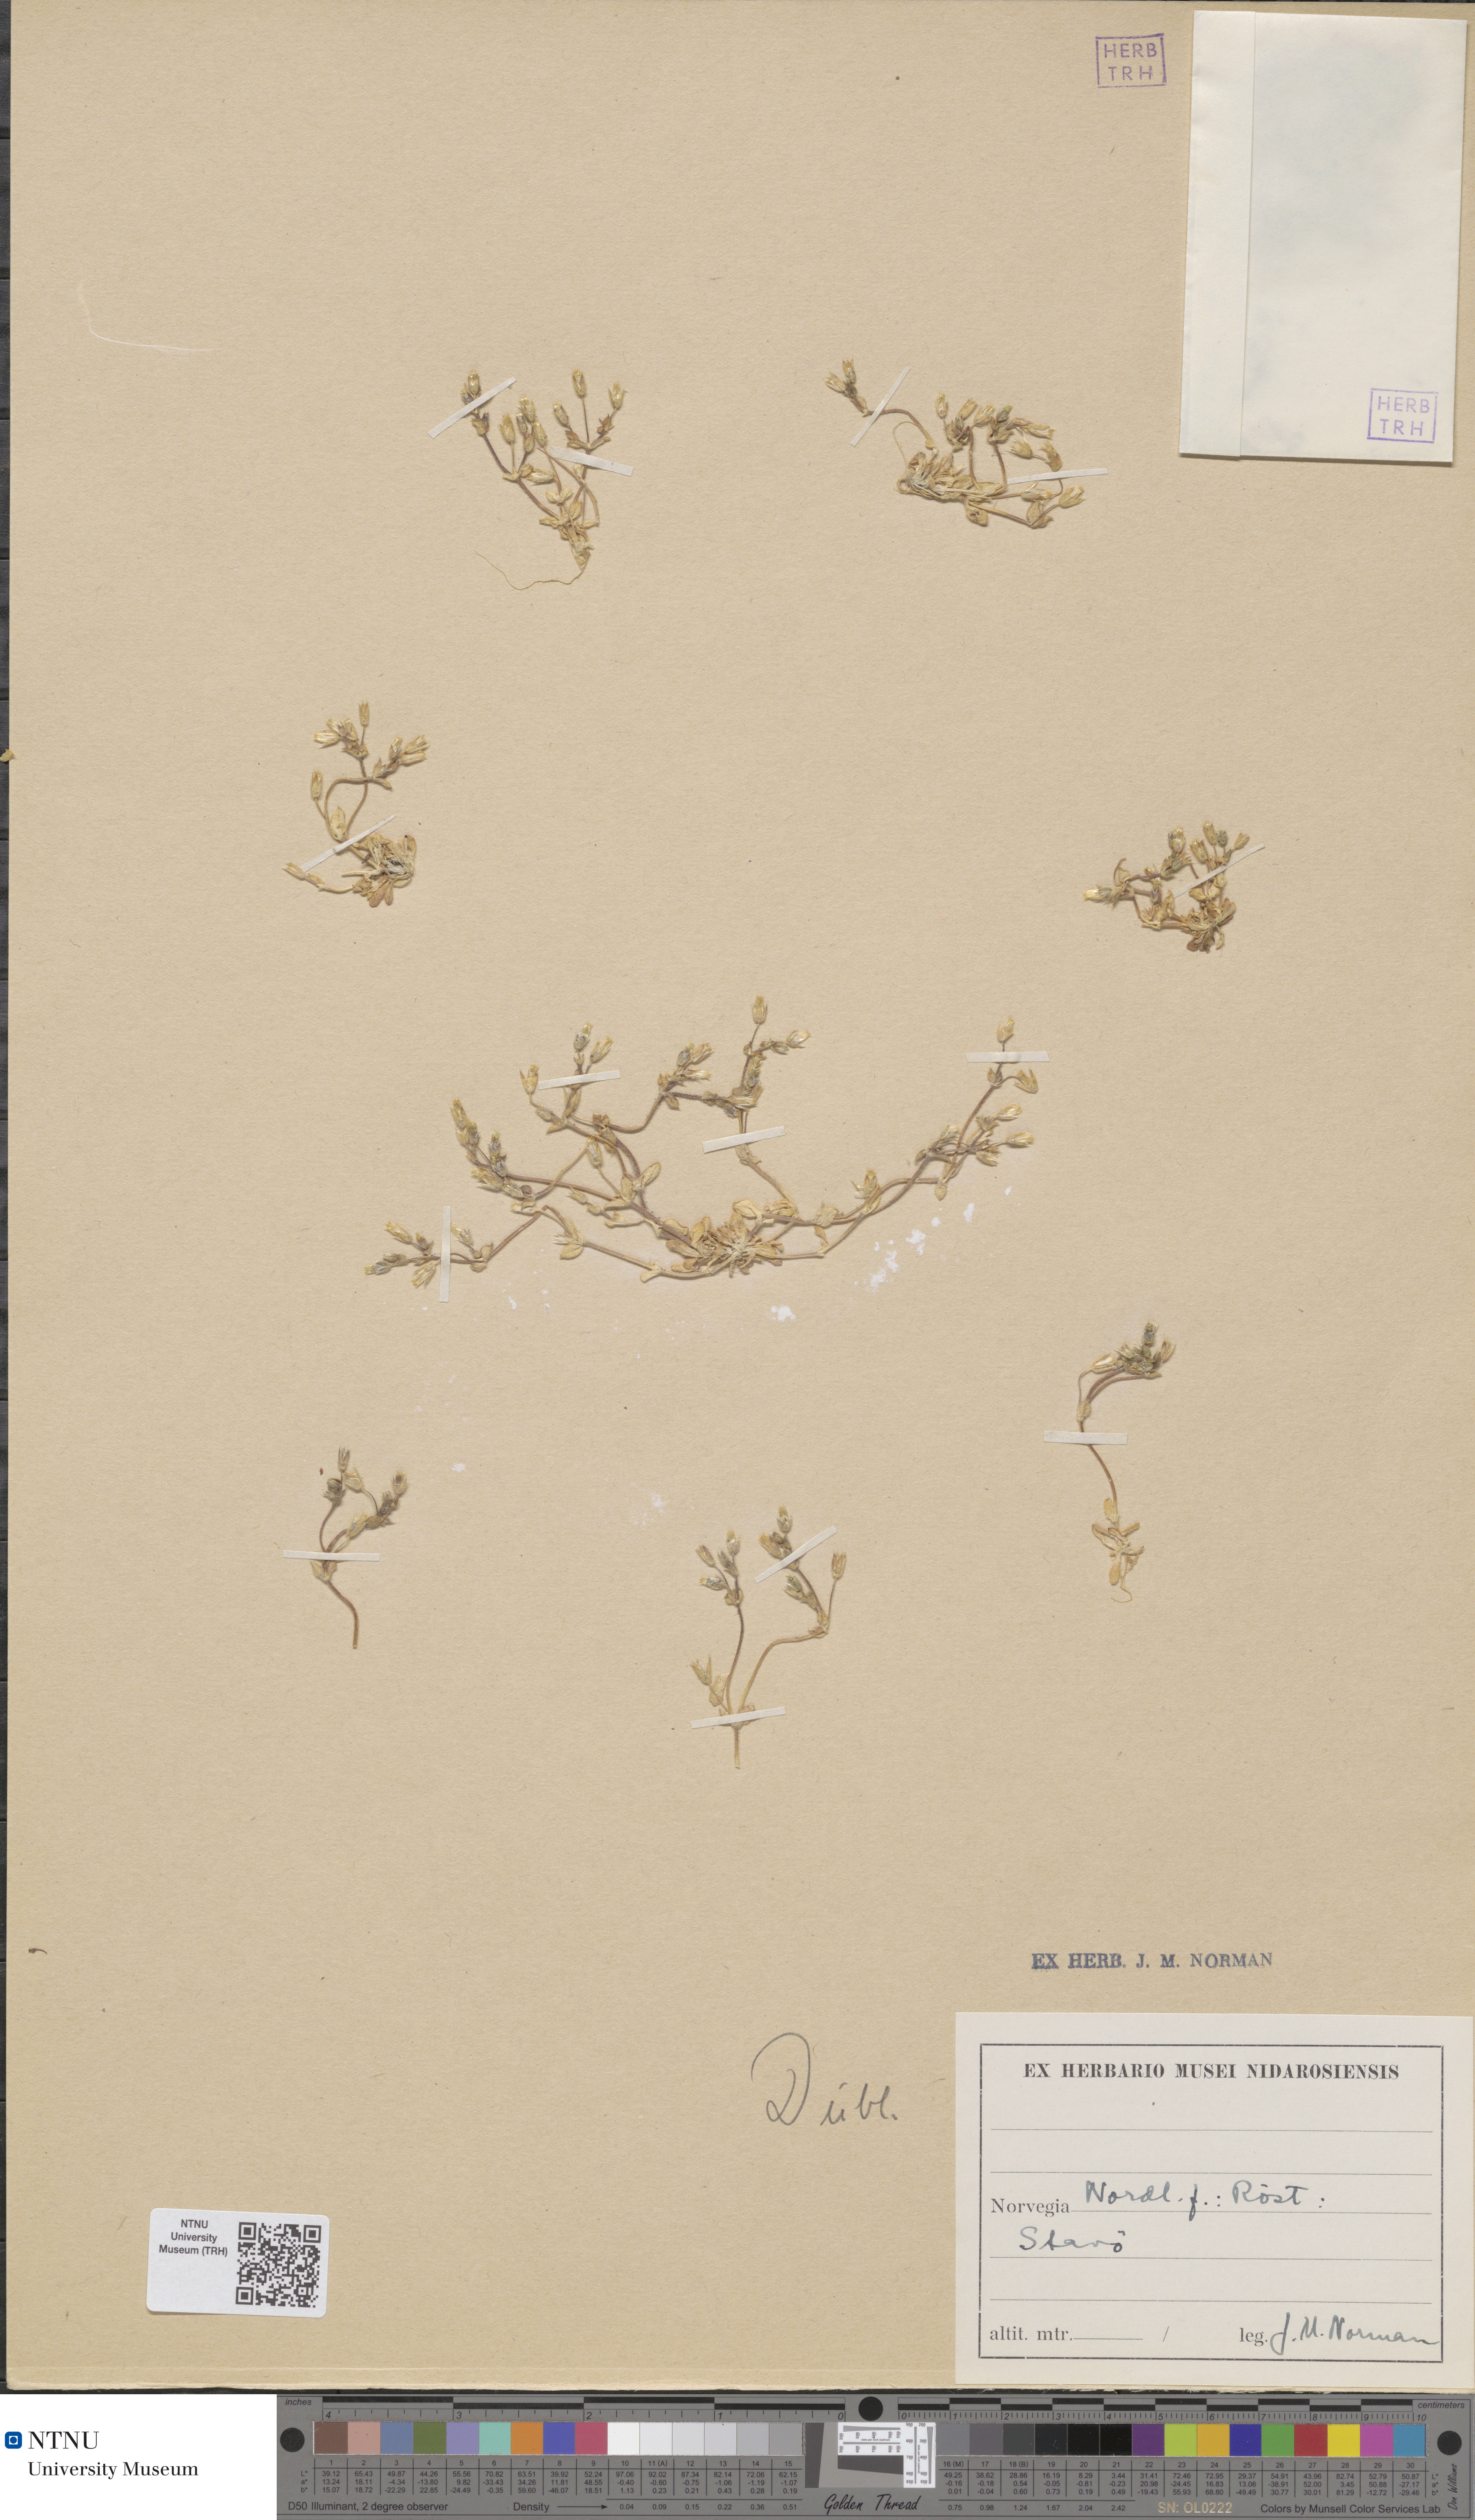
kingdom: Plantae
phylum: Tracheophyta
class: Magnoliopsida
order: Caryophyllales
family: Caryophyllaceae
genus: Cerastium
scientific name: Cerastium diffusum
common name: Fourstamen chickweed
